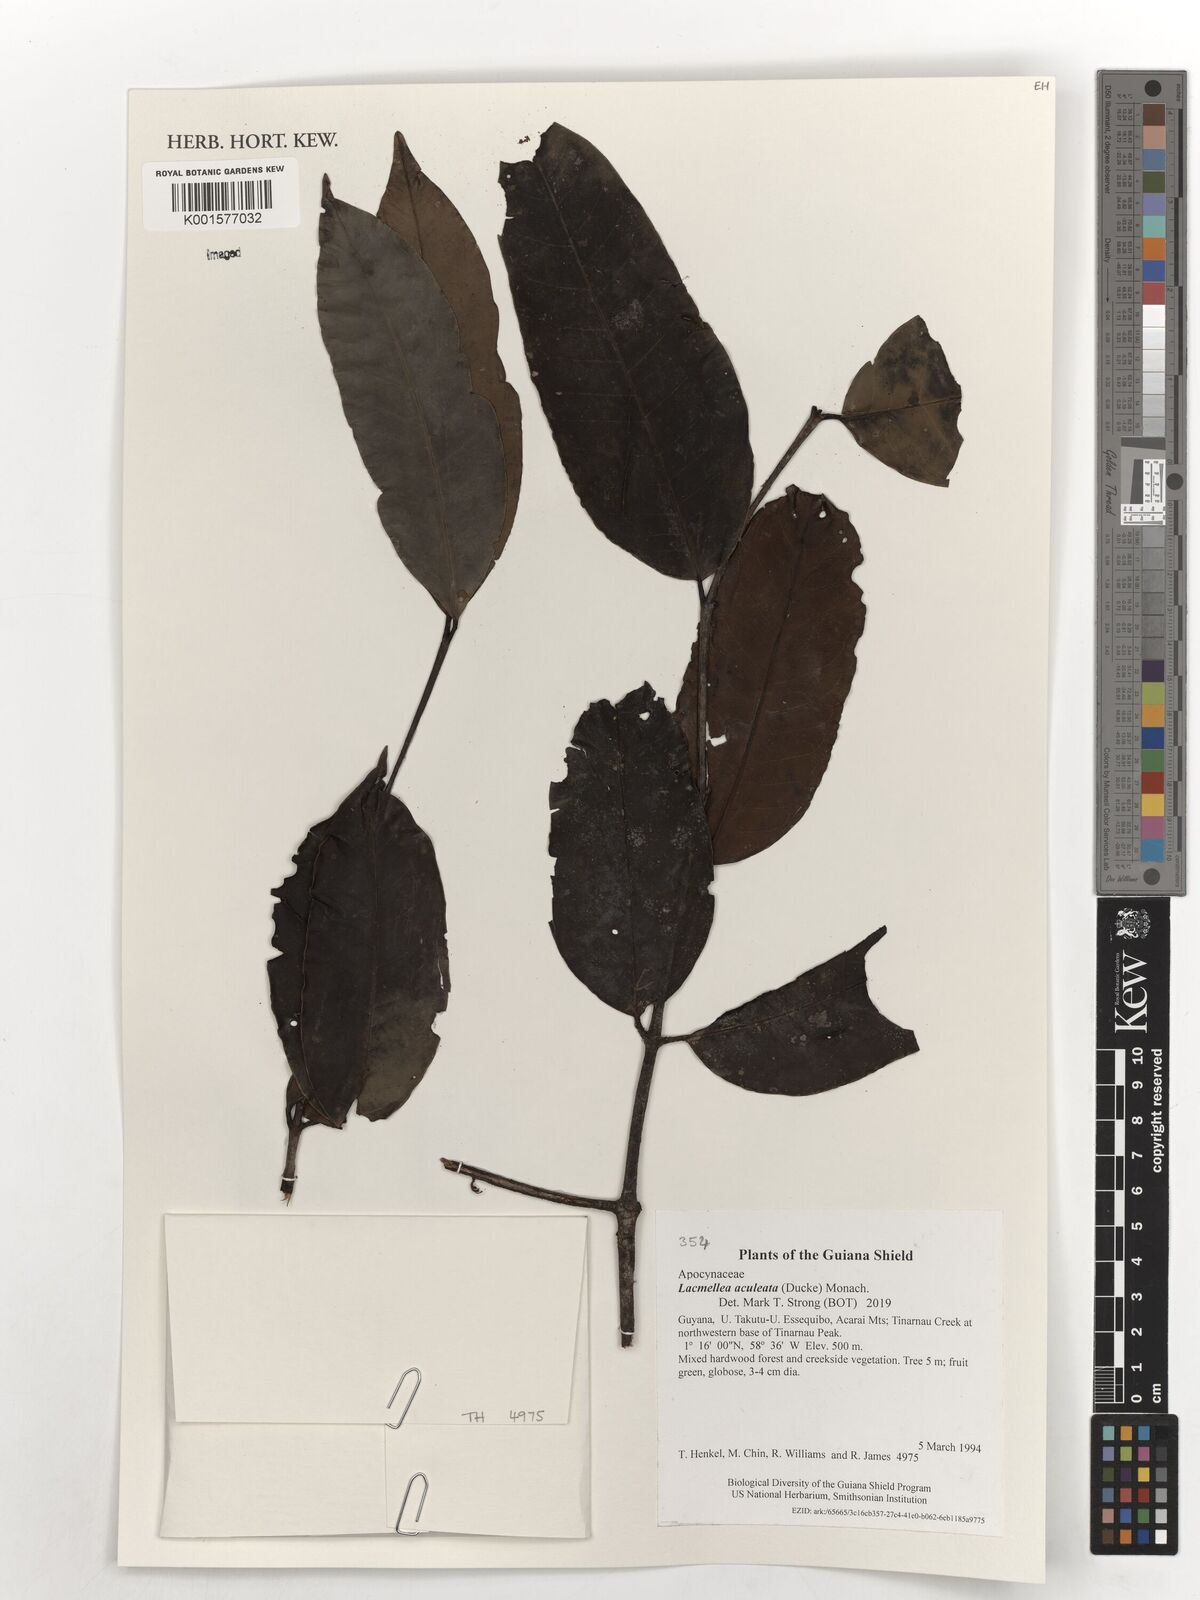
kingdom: Plantae
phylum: Tracheophyta
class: Magnoliopsida
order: Gentianales
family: Apocynaceae
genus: Lacmellea
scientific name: Lacmellea aculeata
